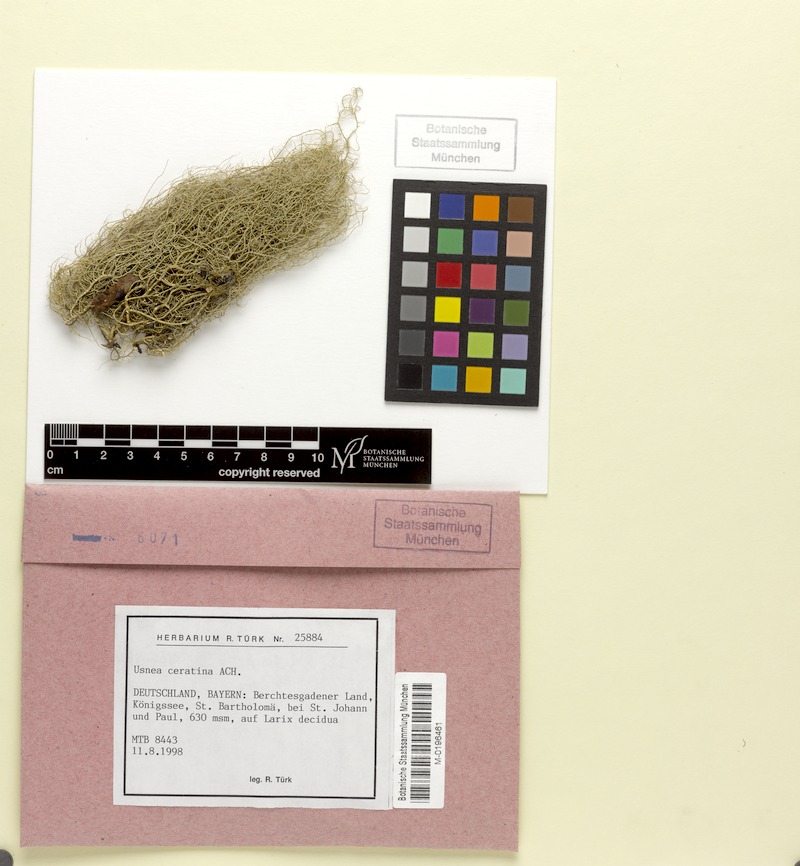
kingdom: Fungi
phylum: Ascomycota
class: Lecanoromycetes
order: Lecanorales
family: Parmeliaceae
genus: Usnea
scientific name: Usnea ceratina
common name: Warty beard lichen
